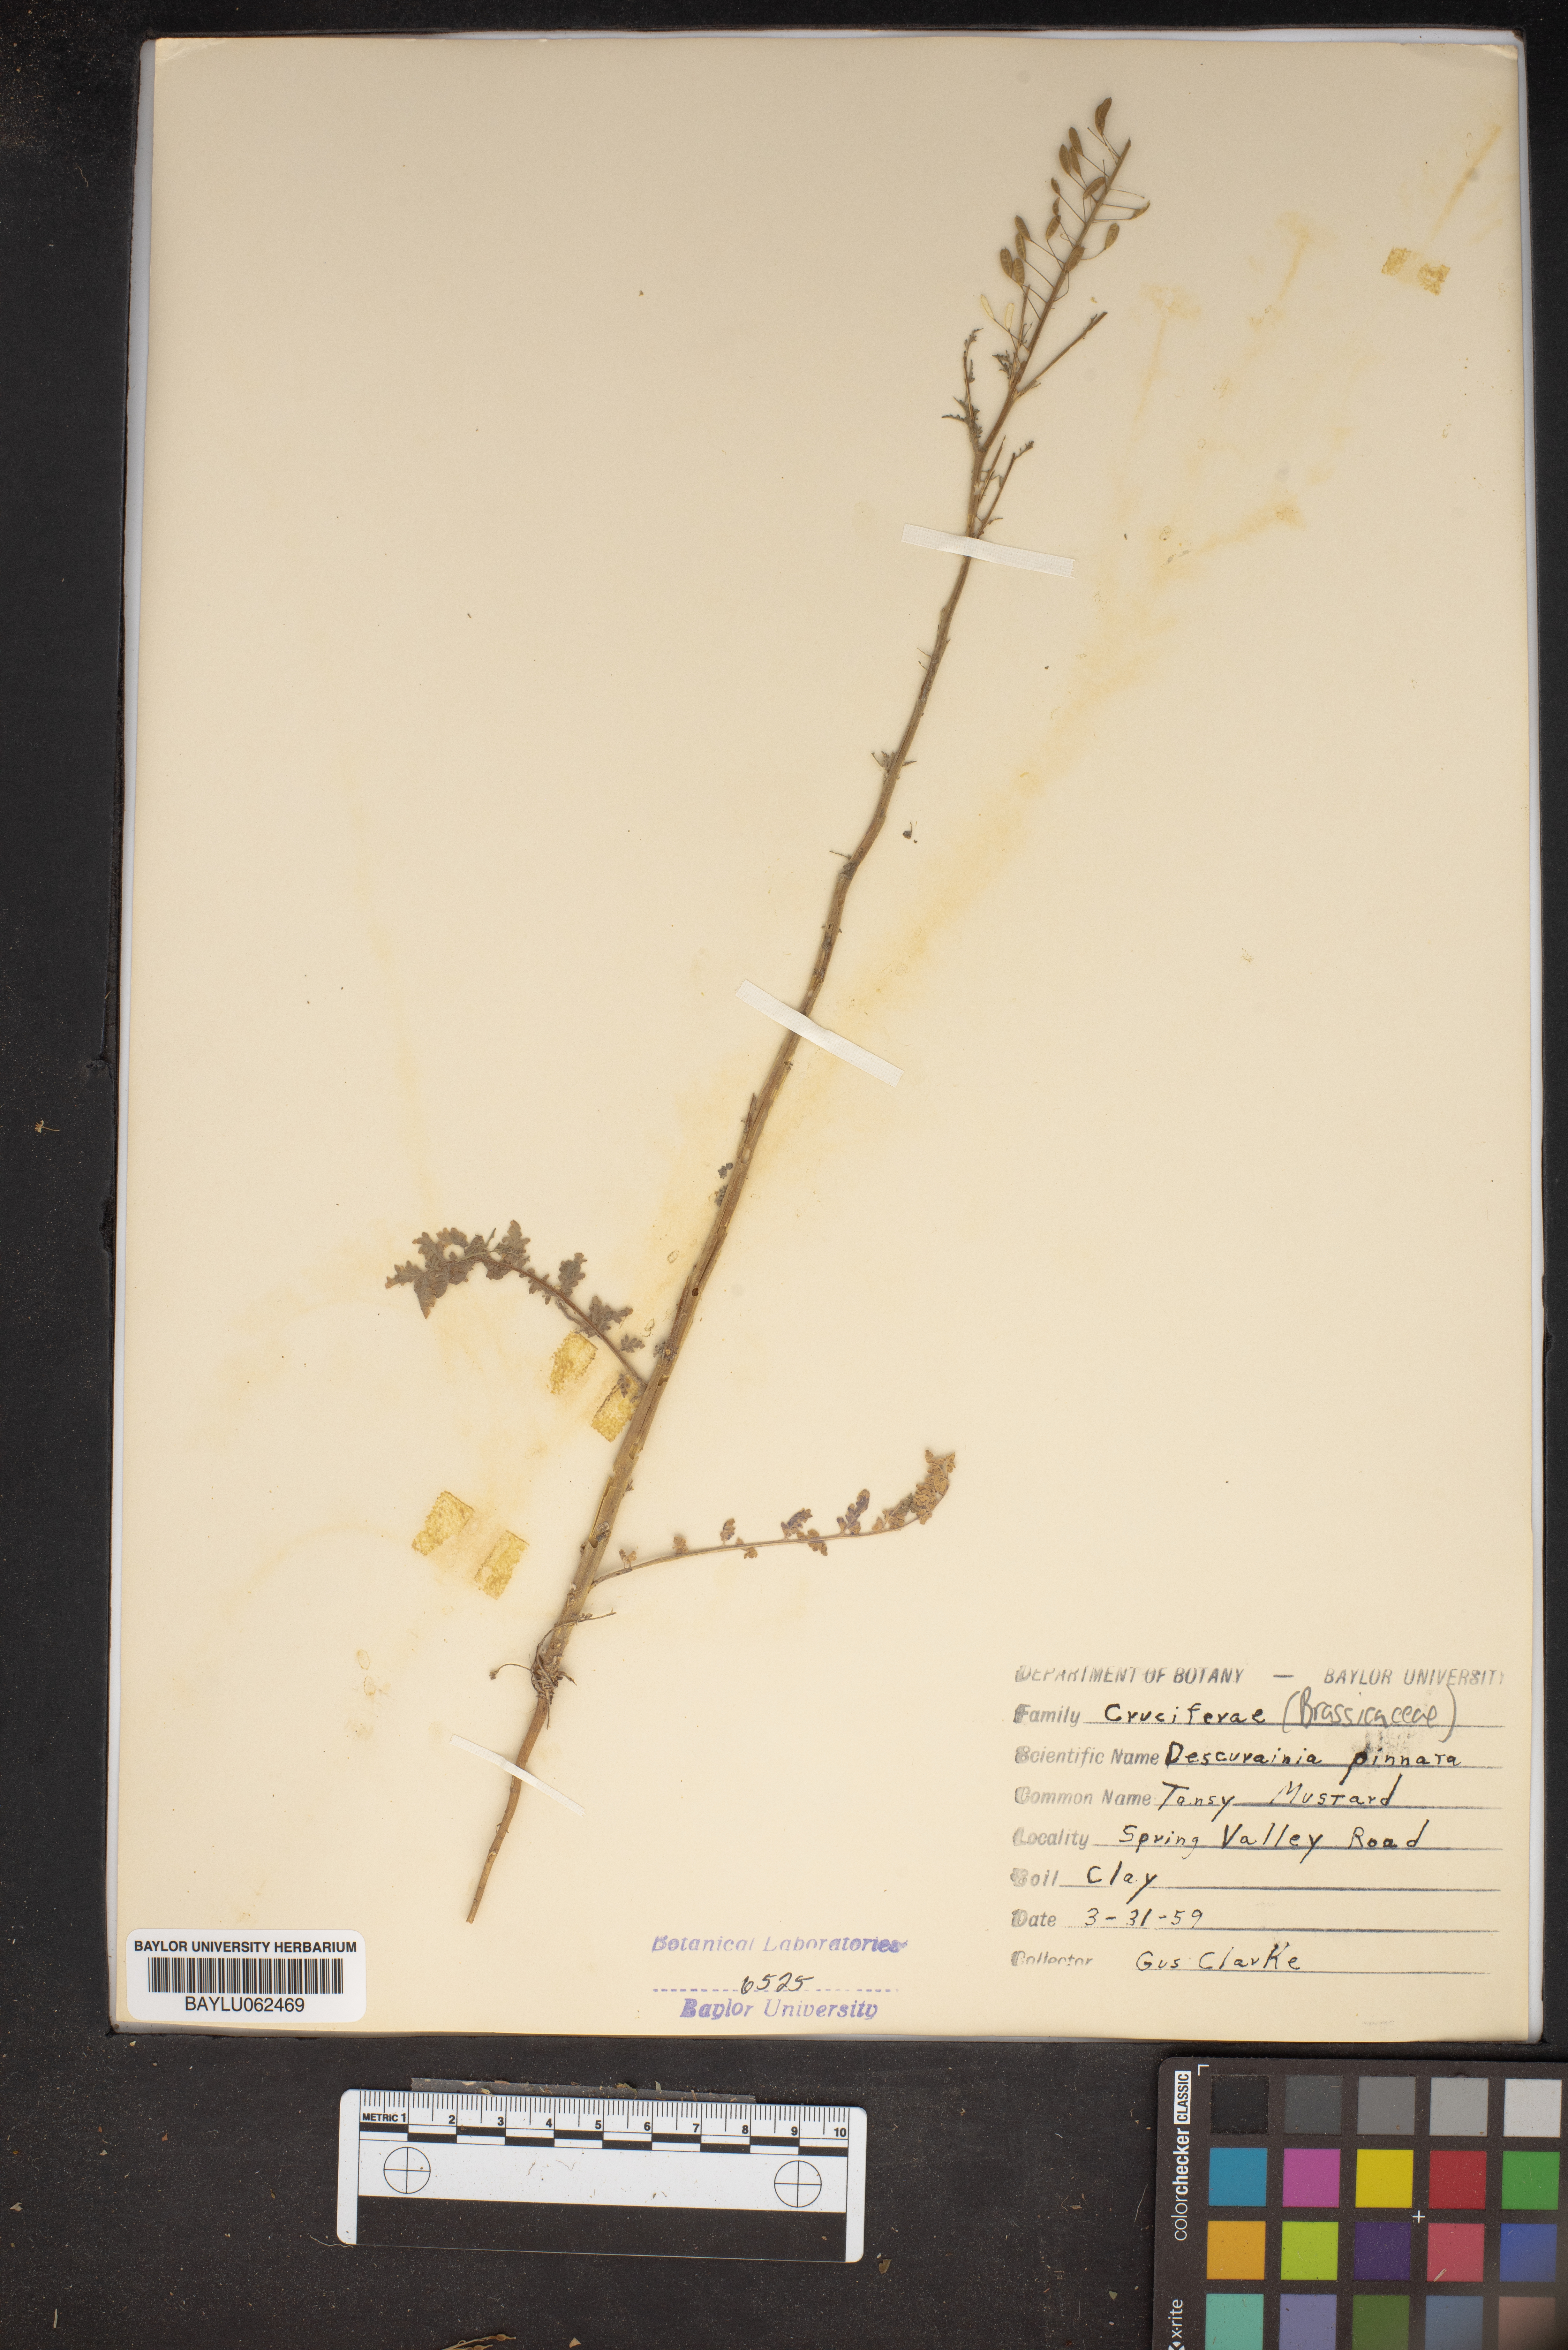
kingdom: Plantae
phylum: Tracheophyta
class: Magnoliopsida
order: Brassicales
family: Brassicaceae
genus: Descurainia
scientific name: Descurainia pinnata
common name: Western tansy mustard
